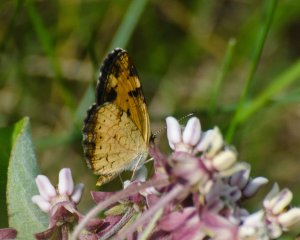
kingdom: Animalia
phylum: Arthropoda
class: Insecta
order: Lepidoptera
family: Nymphalidae
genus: Phyciodes
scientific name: Phyciodes
